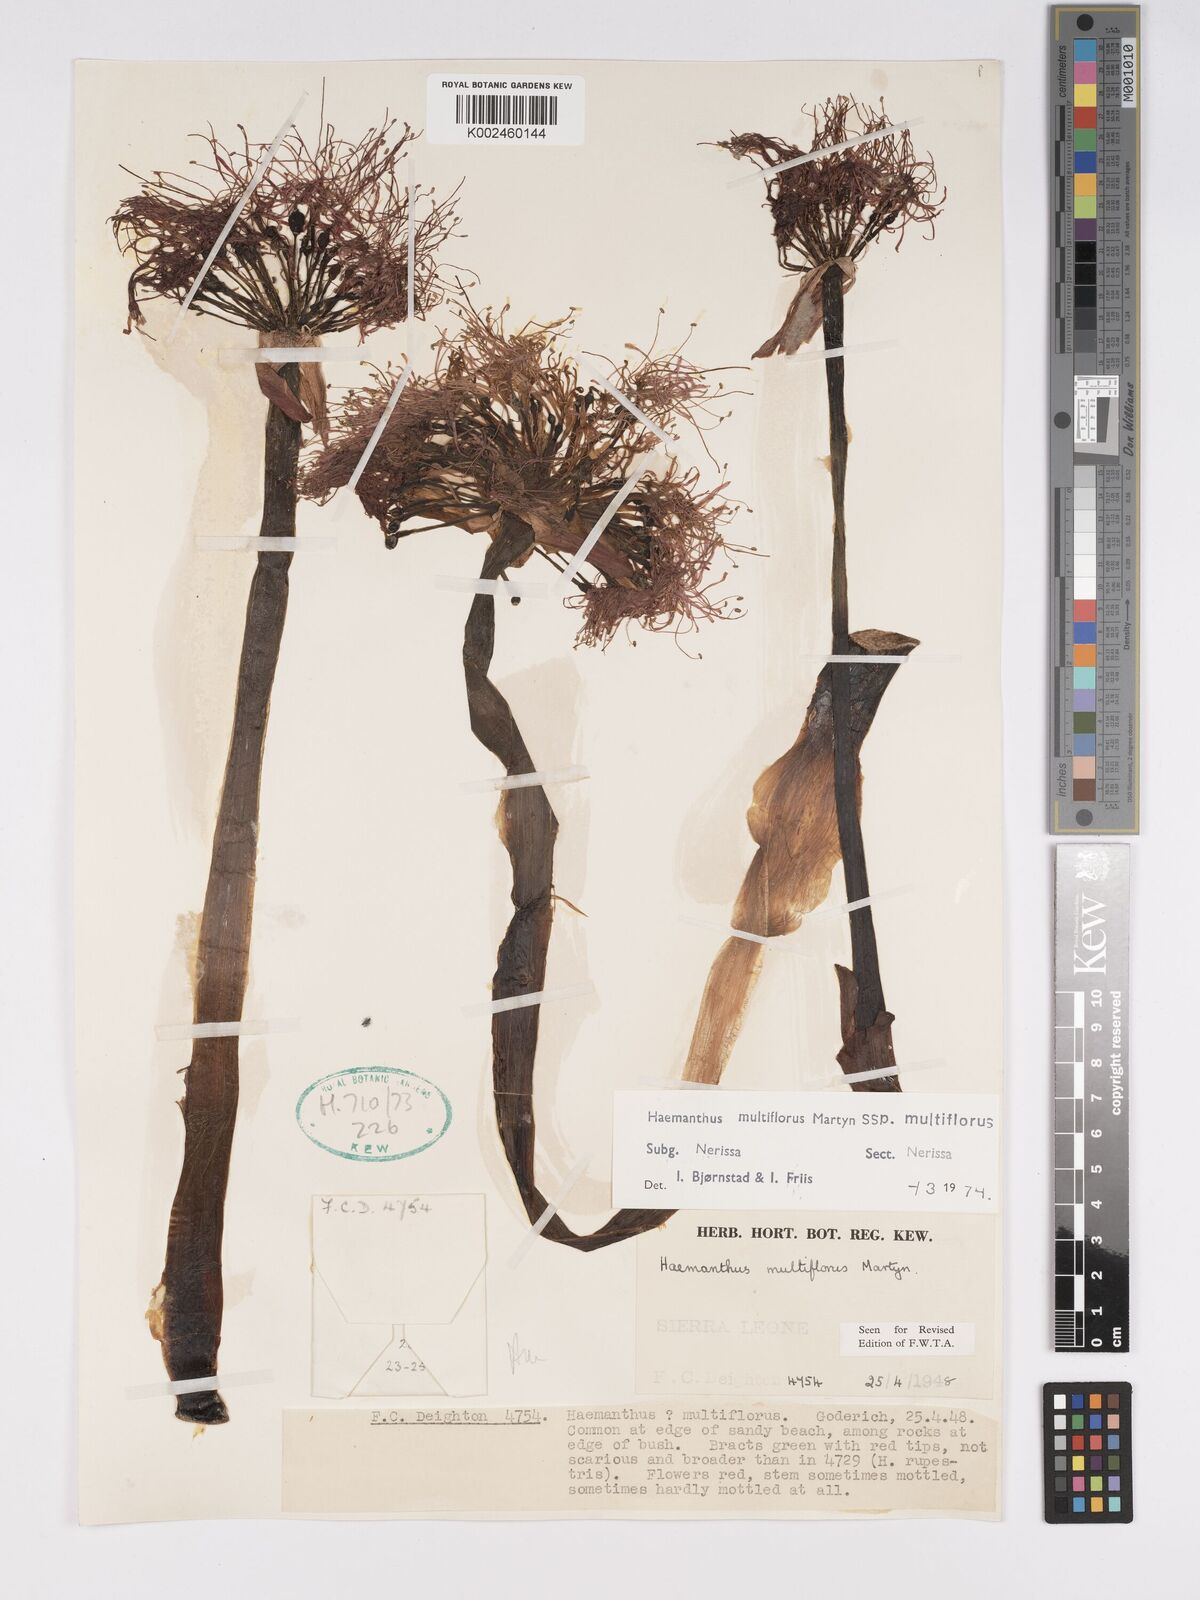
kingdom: Plantae
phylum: Tracheophyta
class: Liliopsida
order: Asparagales
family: Amaryllidaceae
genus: Scadoxus
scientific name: Scadoxus multiflorus
